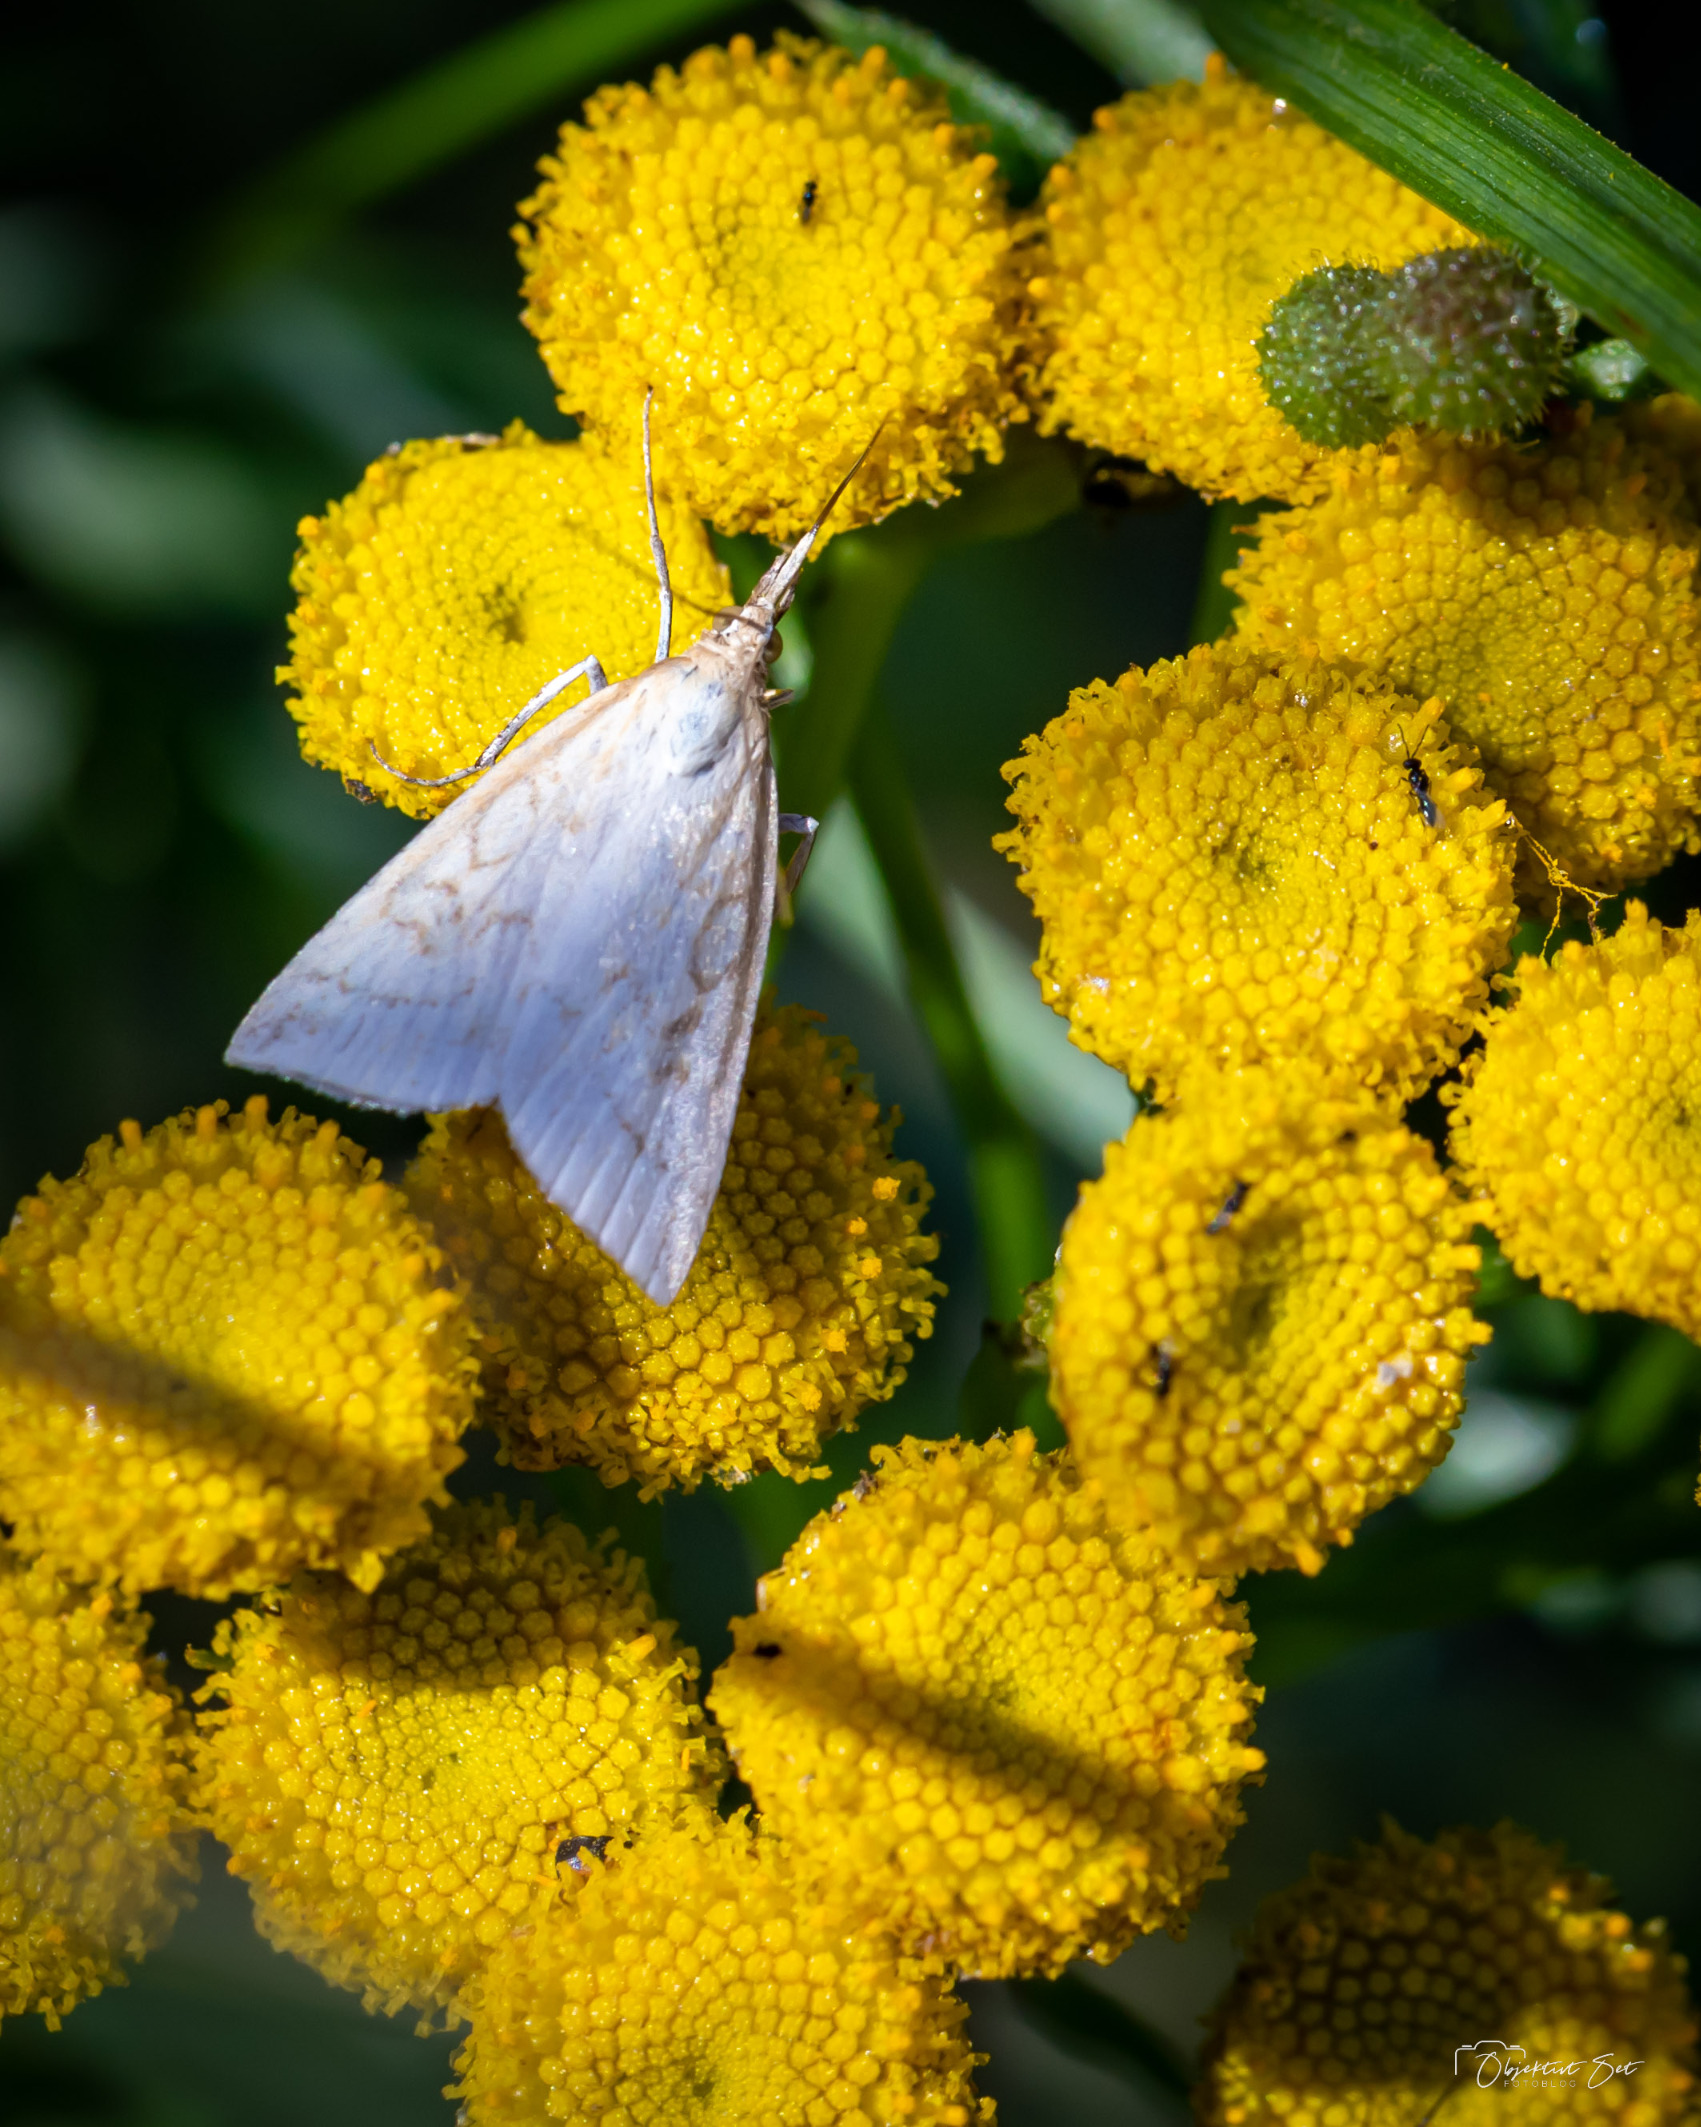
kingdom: Animalia
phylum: Arthropoda
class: Insecta
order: Lepidoptera
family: Crambidae
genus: Udea
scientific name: Udea lutealis
